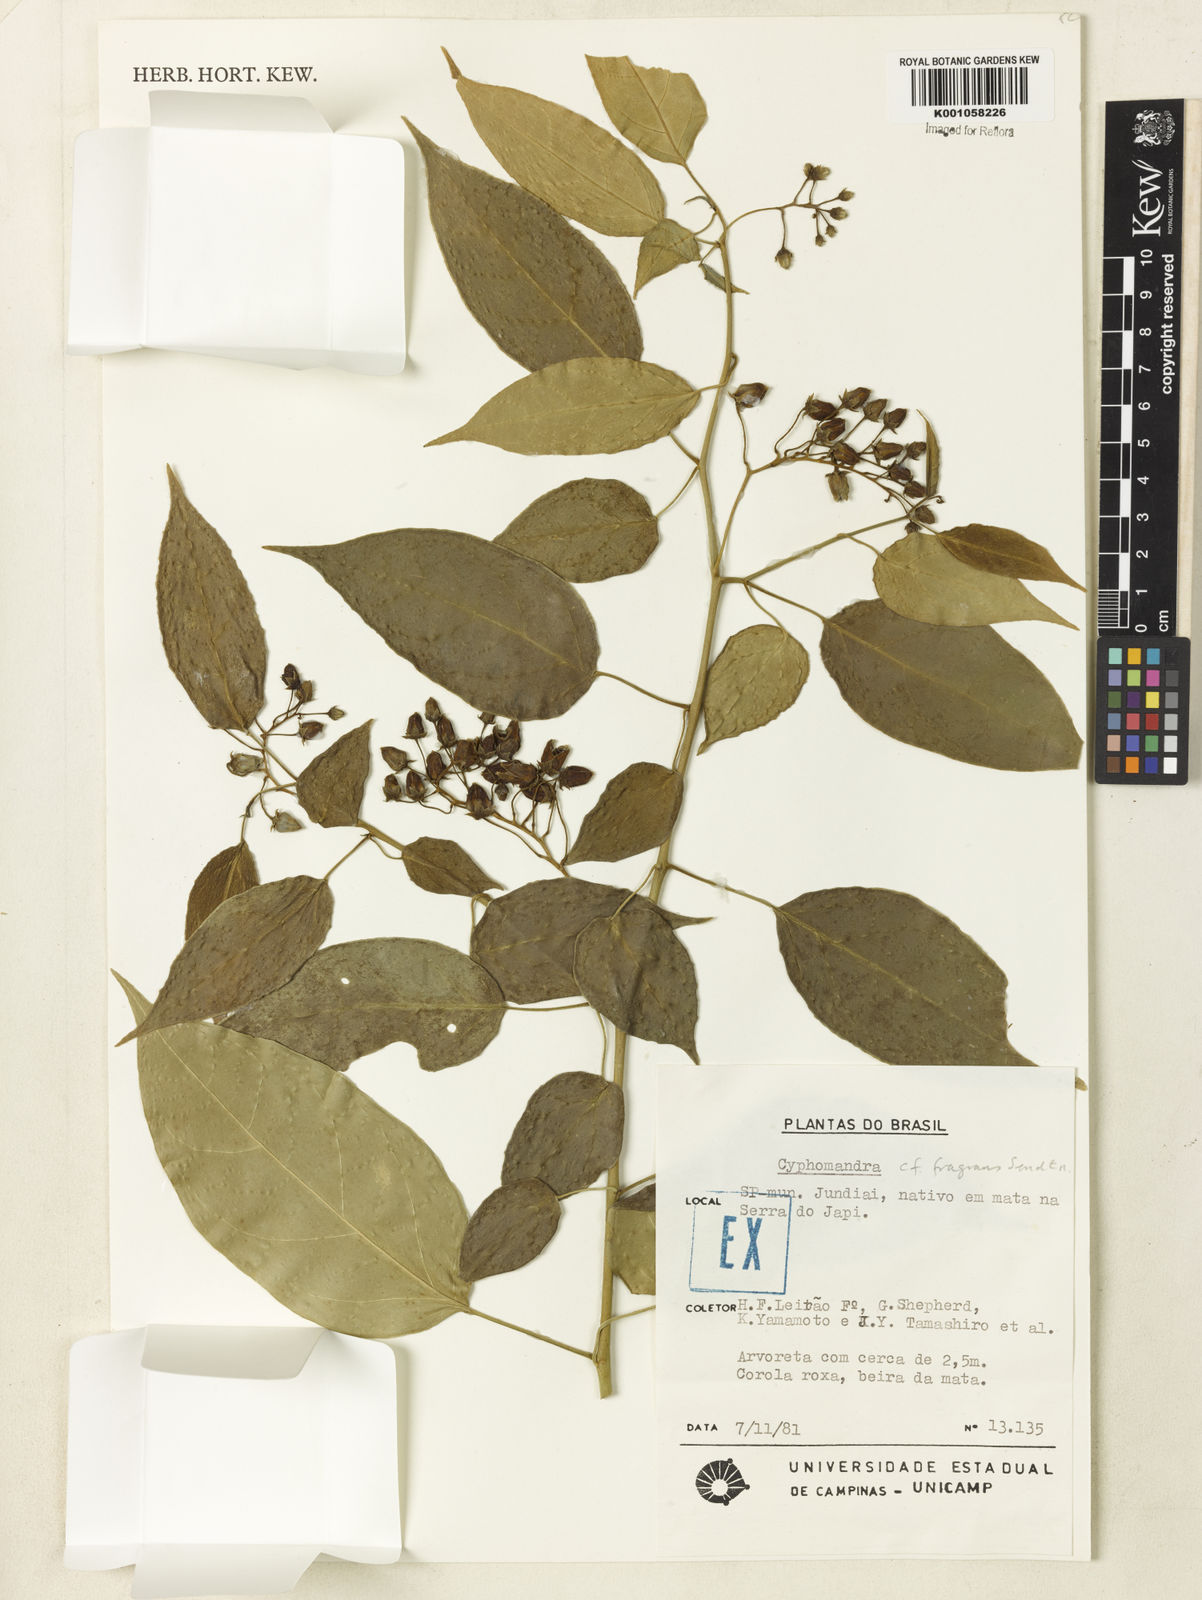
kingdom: Plantae
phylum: Tracheophyta
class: Magnoliopsida
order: Solanales
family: Solanaceae
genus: Solanum
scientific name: Solanum diploconos
